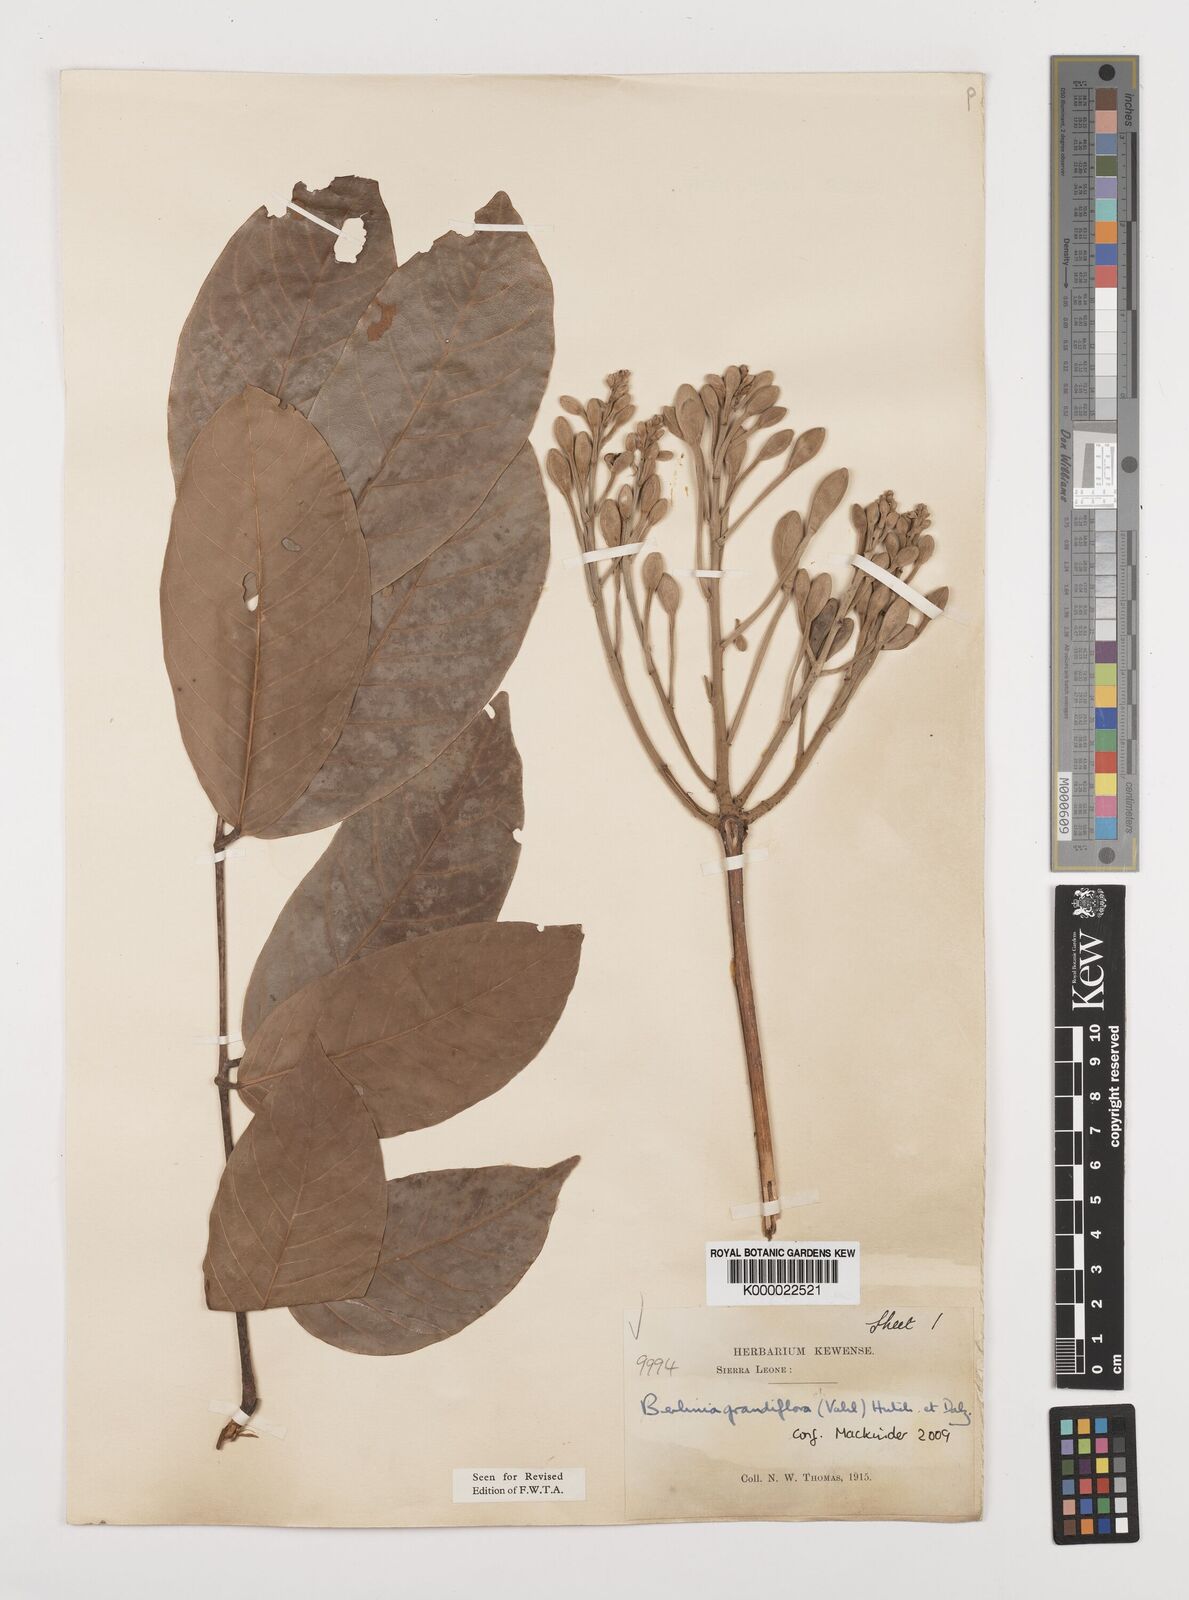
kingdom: Plantae
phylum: Tracheophyta
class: Magnoliopsida
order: Fabales
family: Fabaceae
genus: Berlinia
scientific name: Berlinia grandiflora
